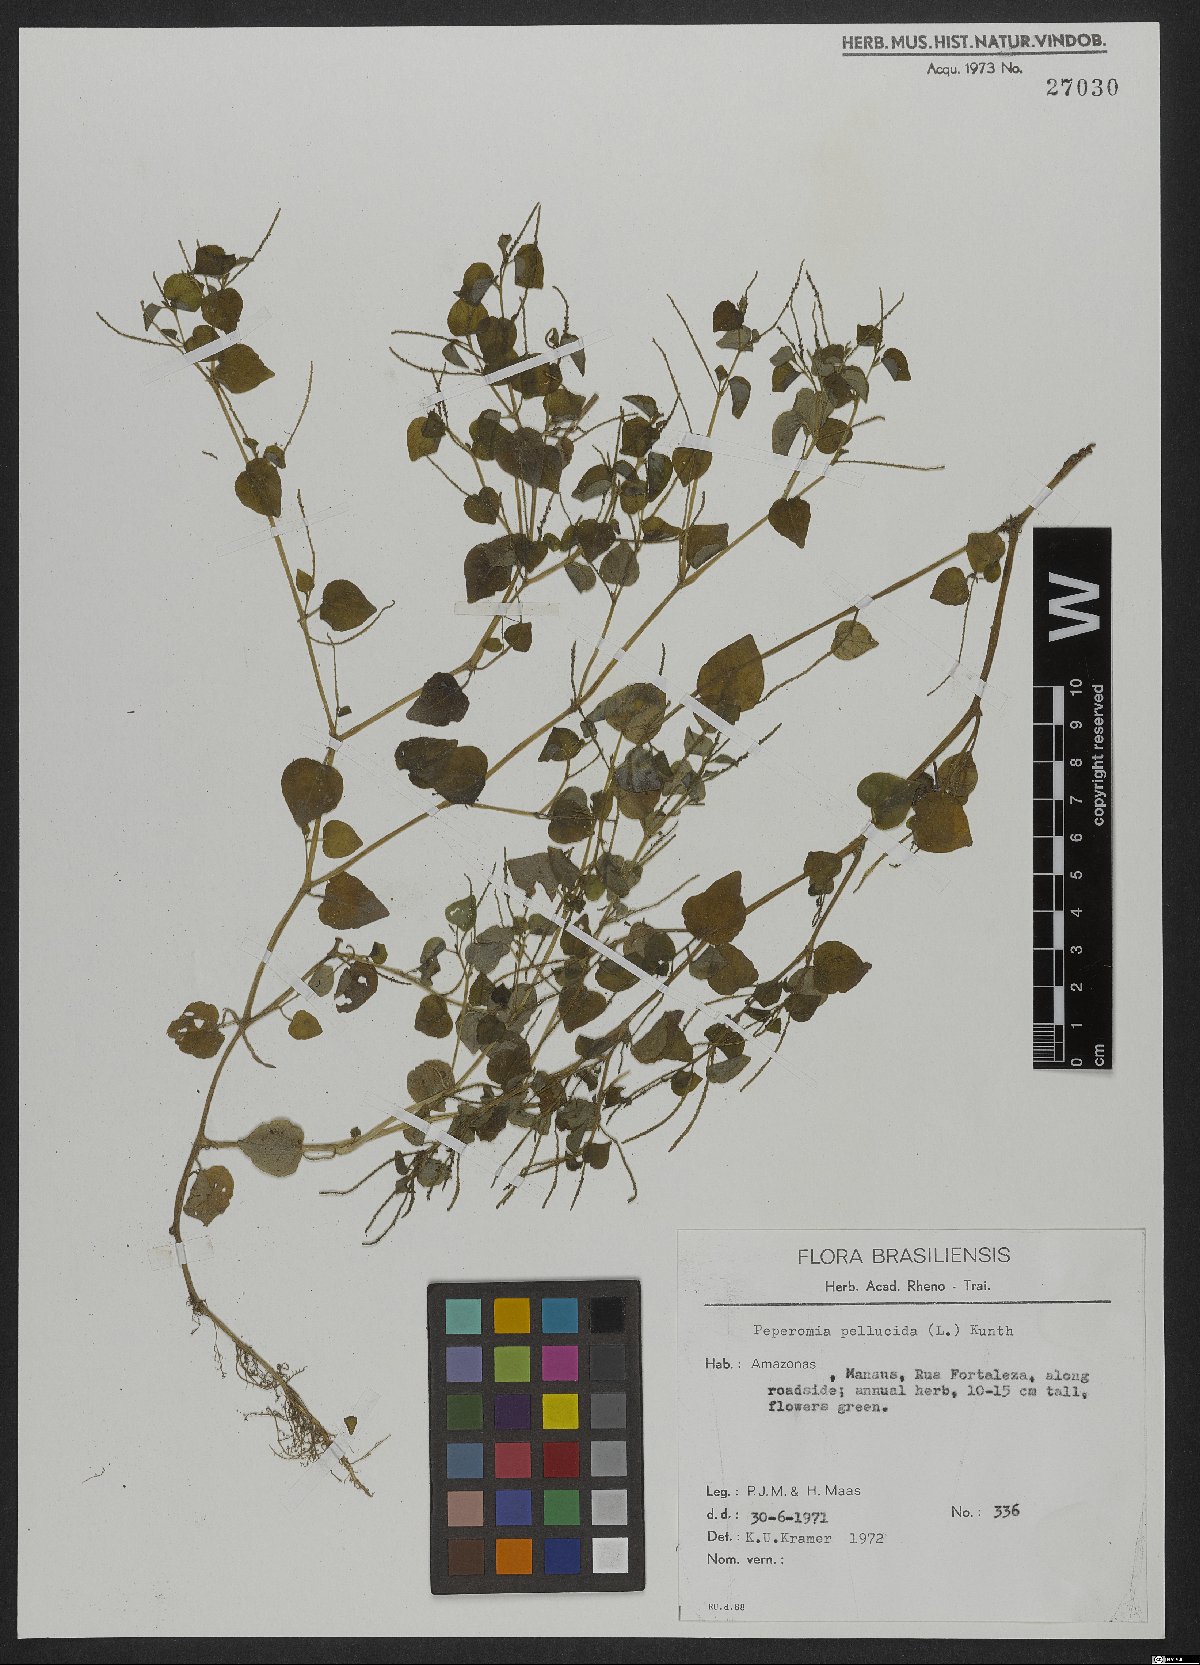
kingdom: Plantae
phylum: Tracheophyta
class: Magnoliopsida
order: Piperales
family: Piperaceae
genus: Peperomia
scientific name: Peperomia pellucida
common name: Man to man
